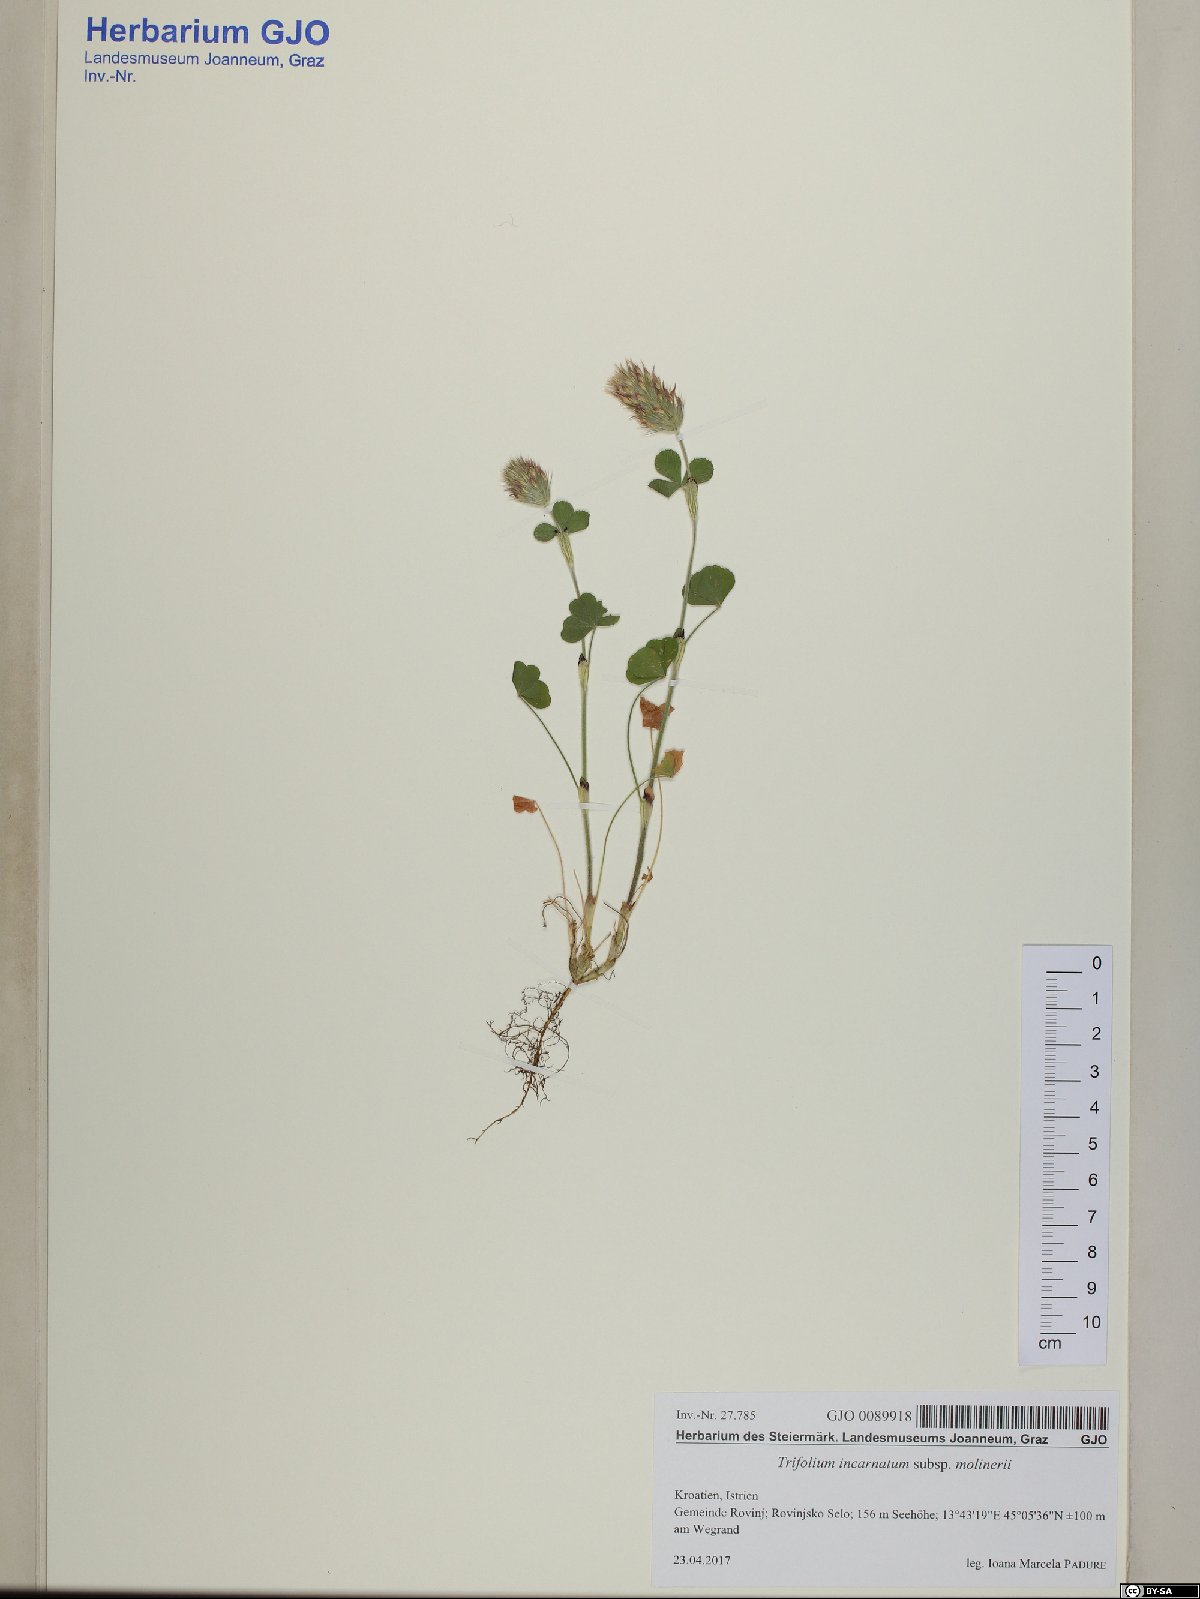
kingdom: Plantae
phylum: Tracheophyta
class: Magnoliopsida
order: Fabales
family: Fabaceae
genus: Trifolium
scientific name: Trifolium incarnatum
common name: Crimson clover
